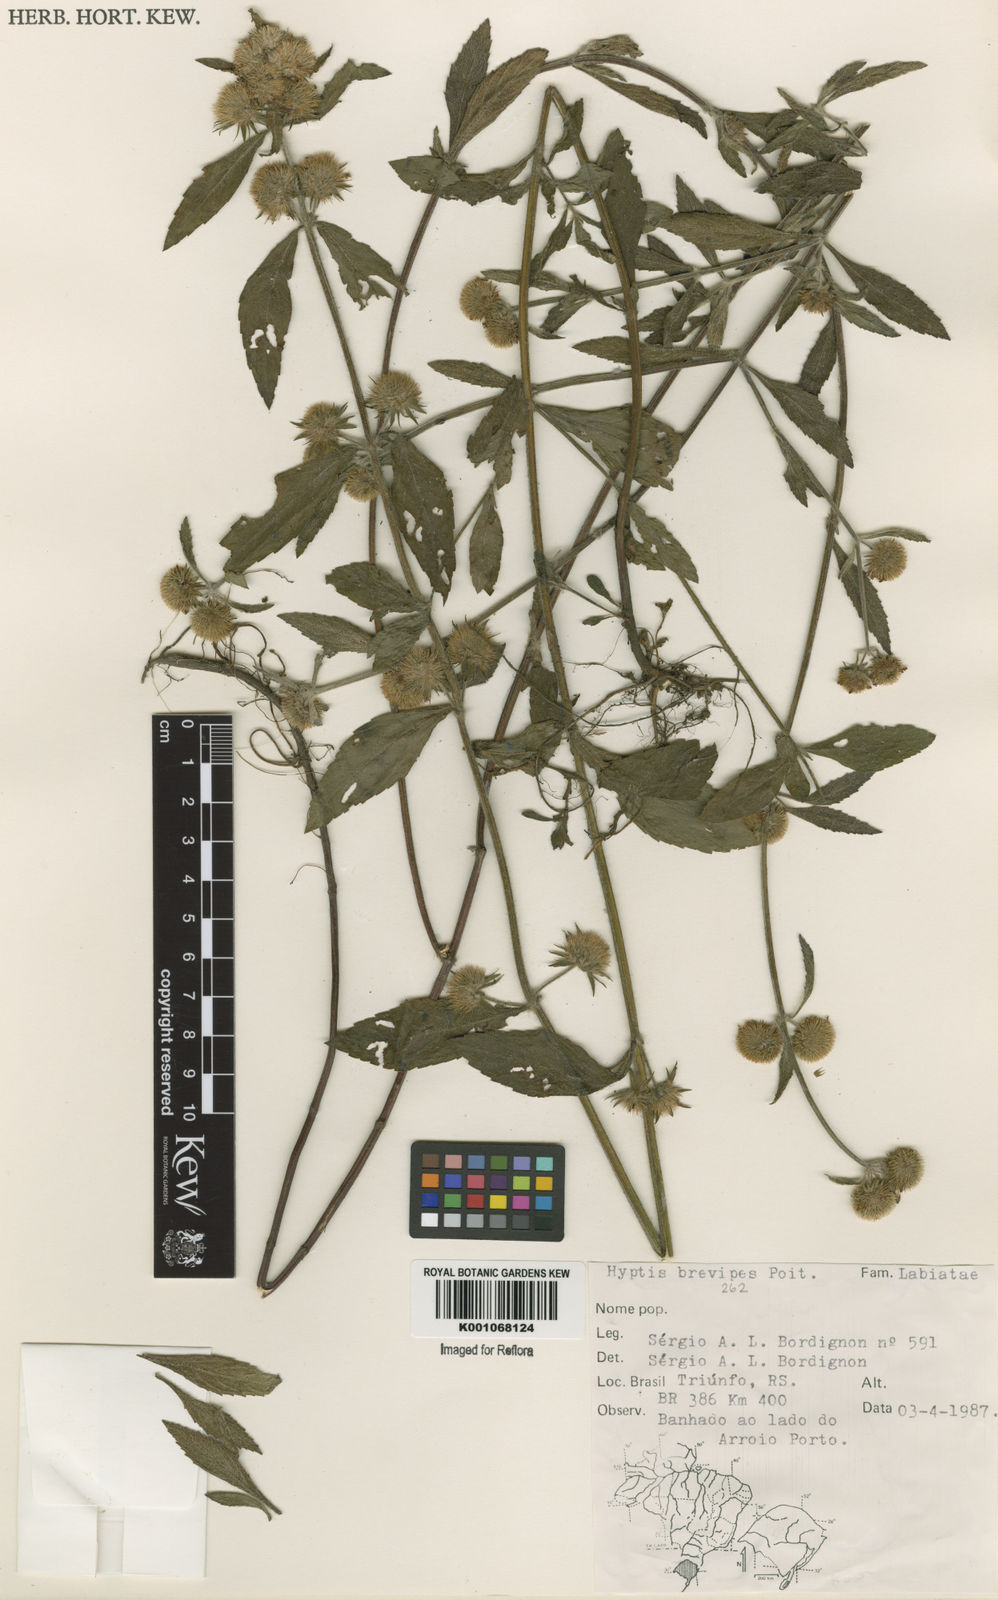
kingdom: Plantae
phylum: Tracheophyta
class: Magnoliopsida
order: Lamiales
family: Lamiaceae
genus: Hyptis
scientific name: Hyptis brevipes
